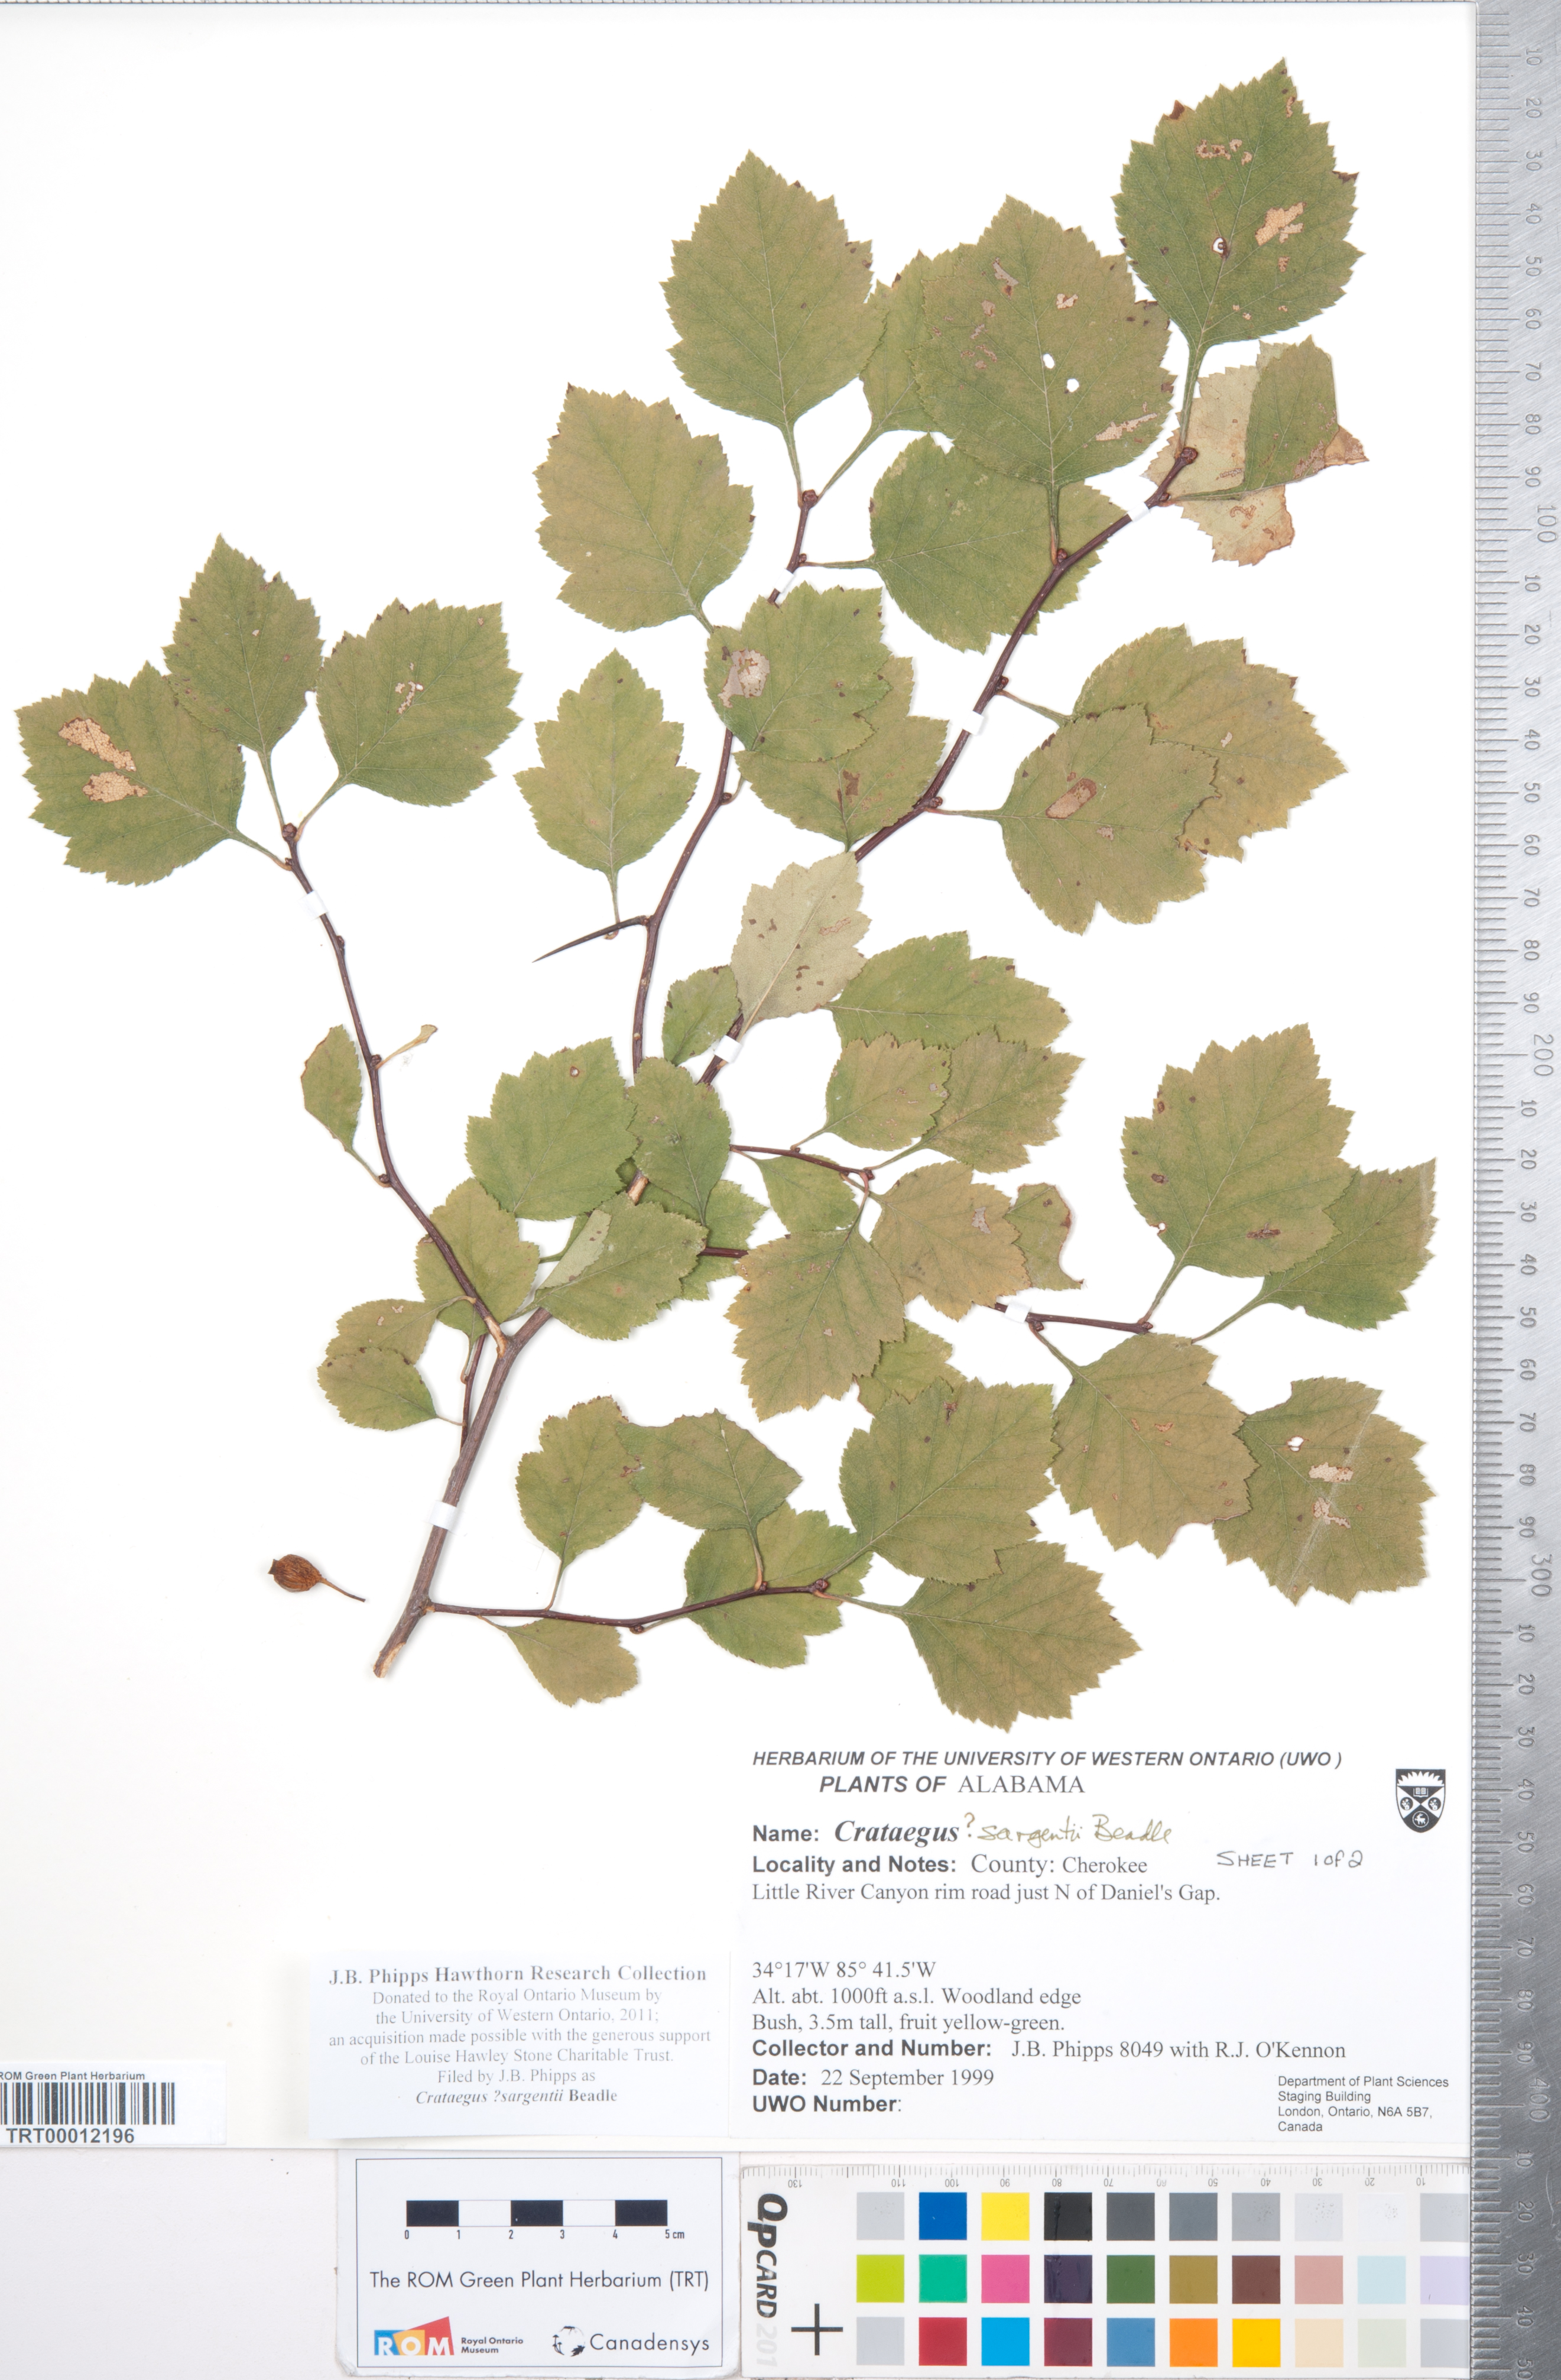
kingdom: Plantae
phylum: Tracheophyta
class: Magnoliopsida
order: Rosales
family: Rosaceae
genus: Crataegus
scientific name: Crataegus sargentii
